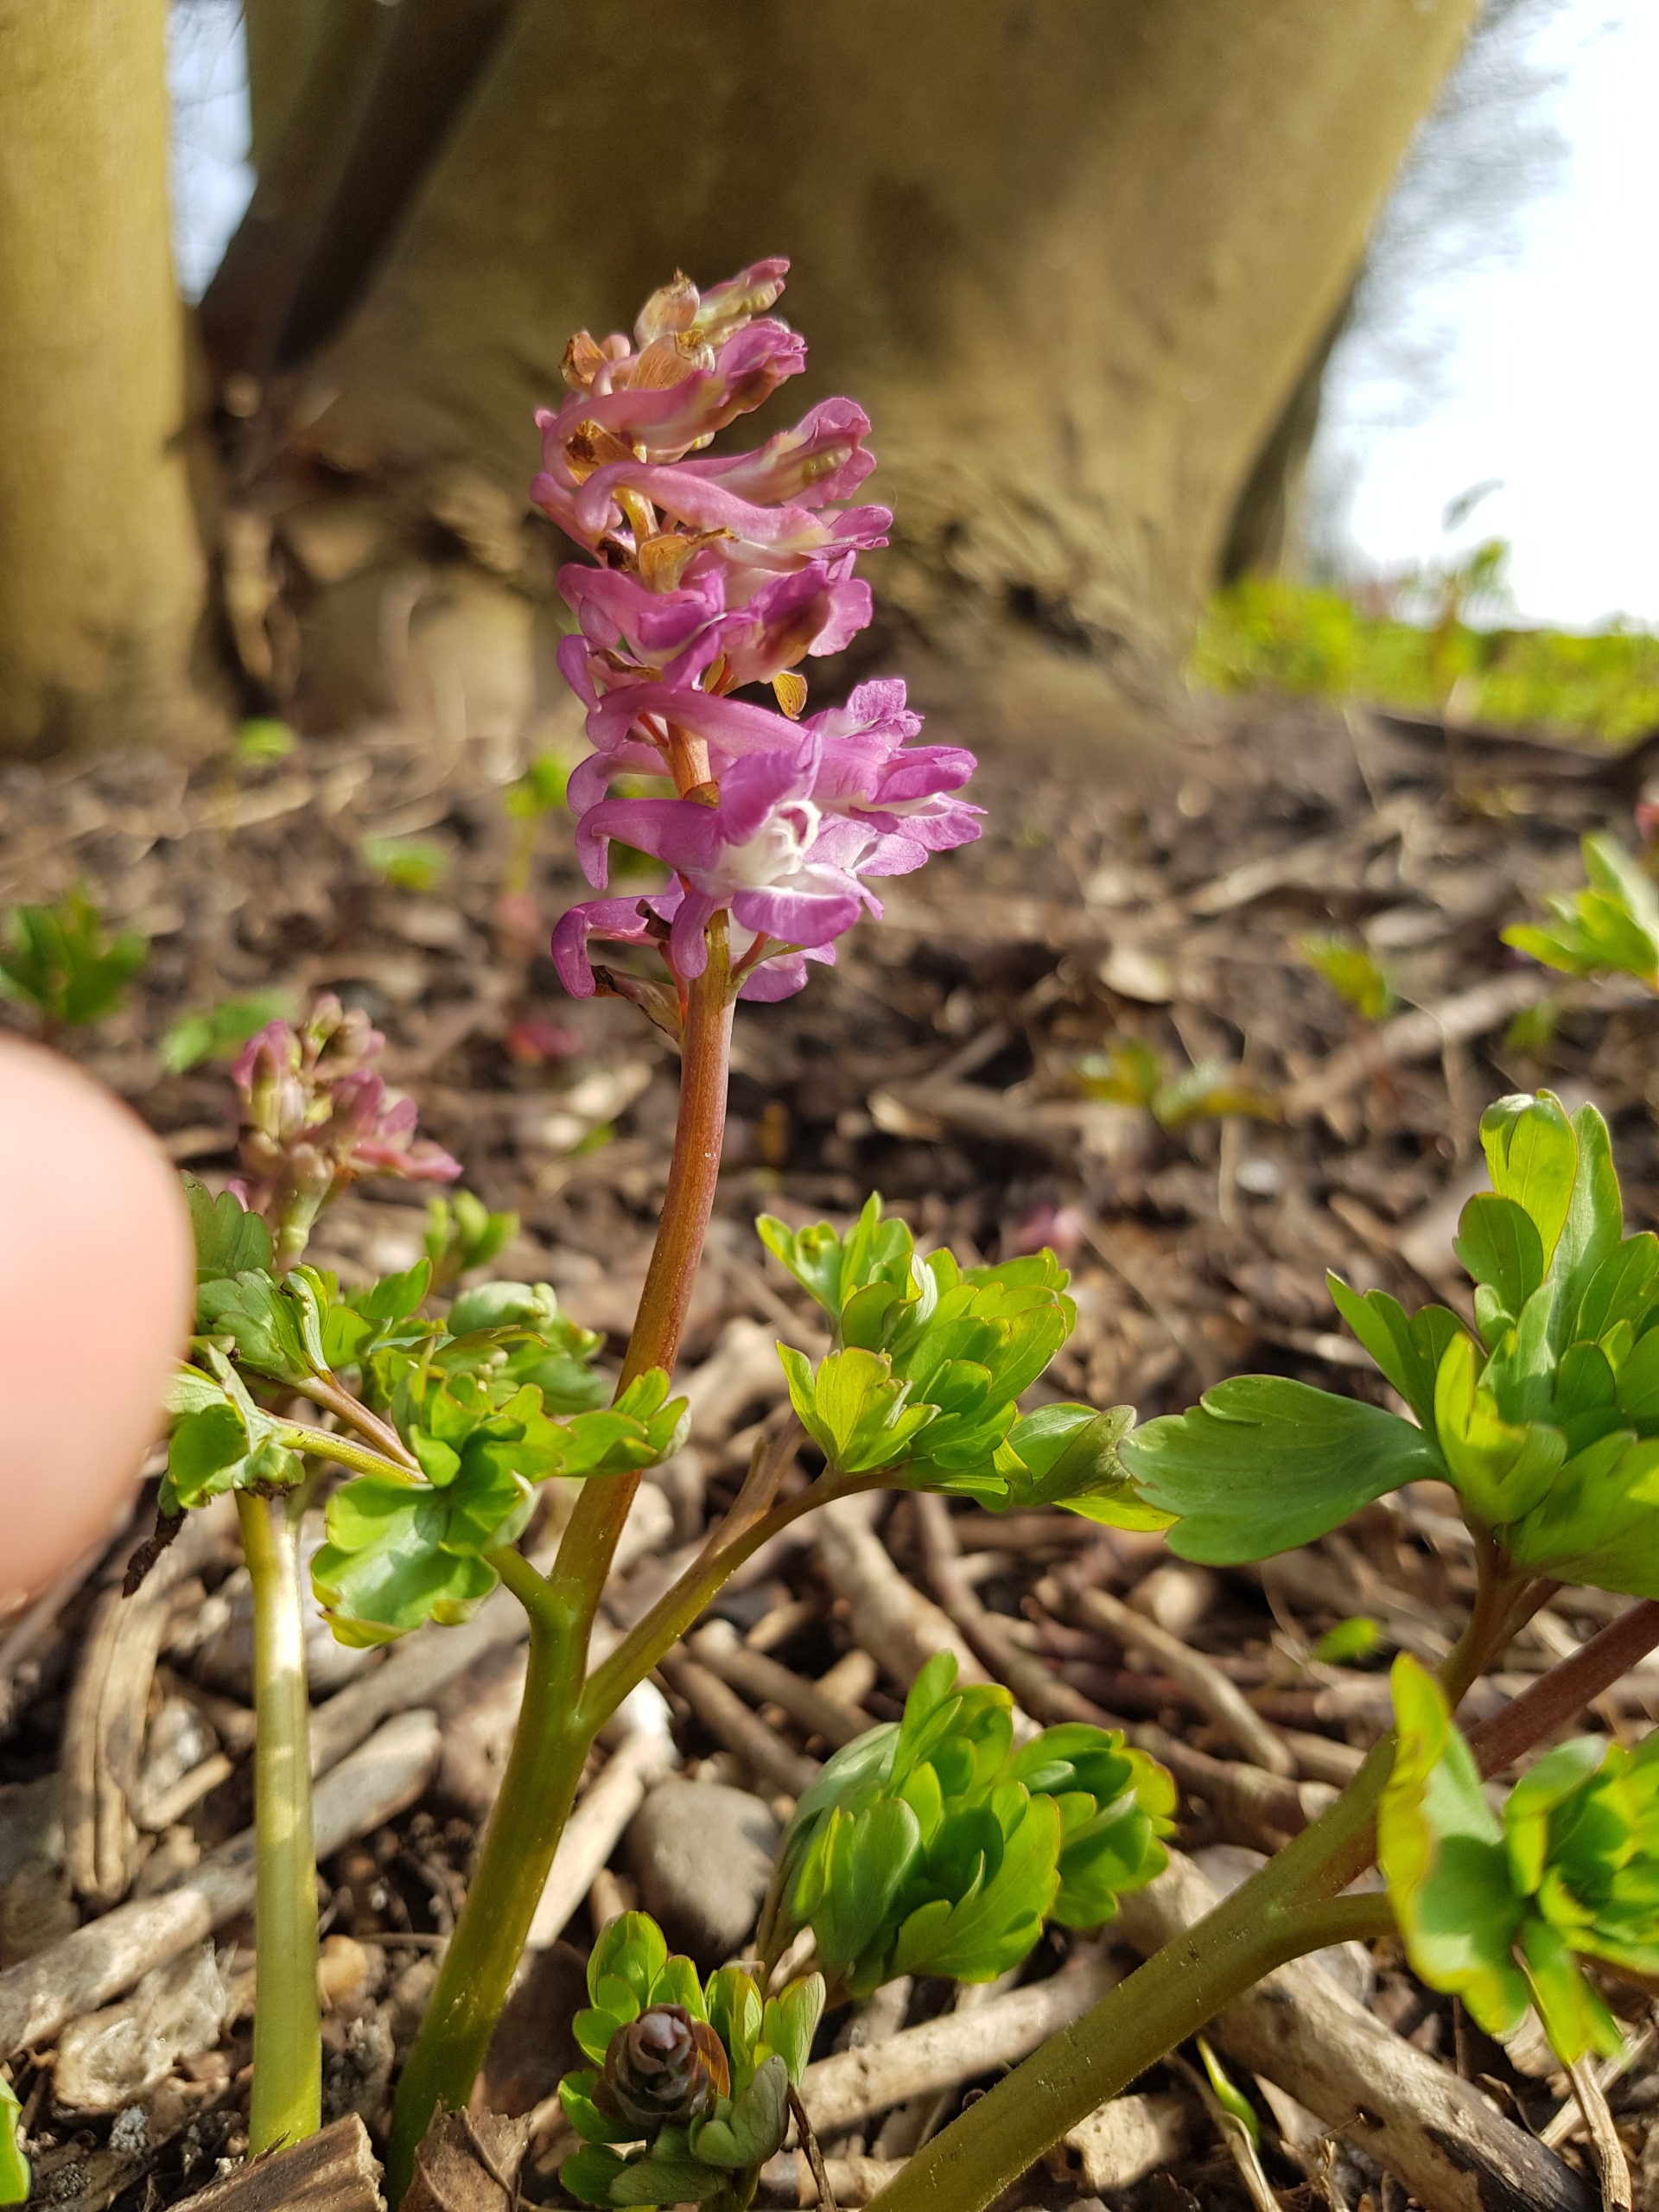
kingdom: Plantae
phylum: Tracheophyta
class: Magnoliopsida
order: Ranunculales
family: Papaveraceae
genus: Corydalis
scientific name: Corydalis cava
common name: Hulrodet lærkespore
